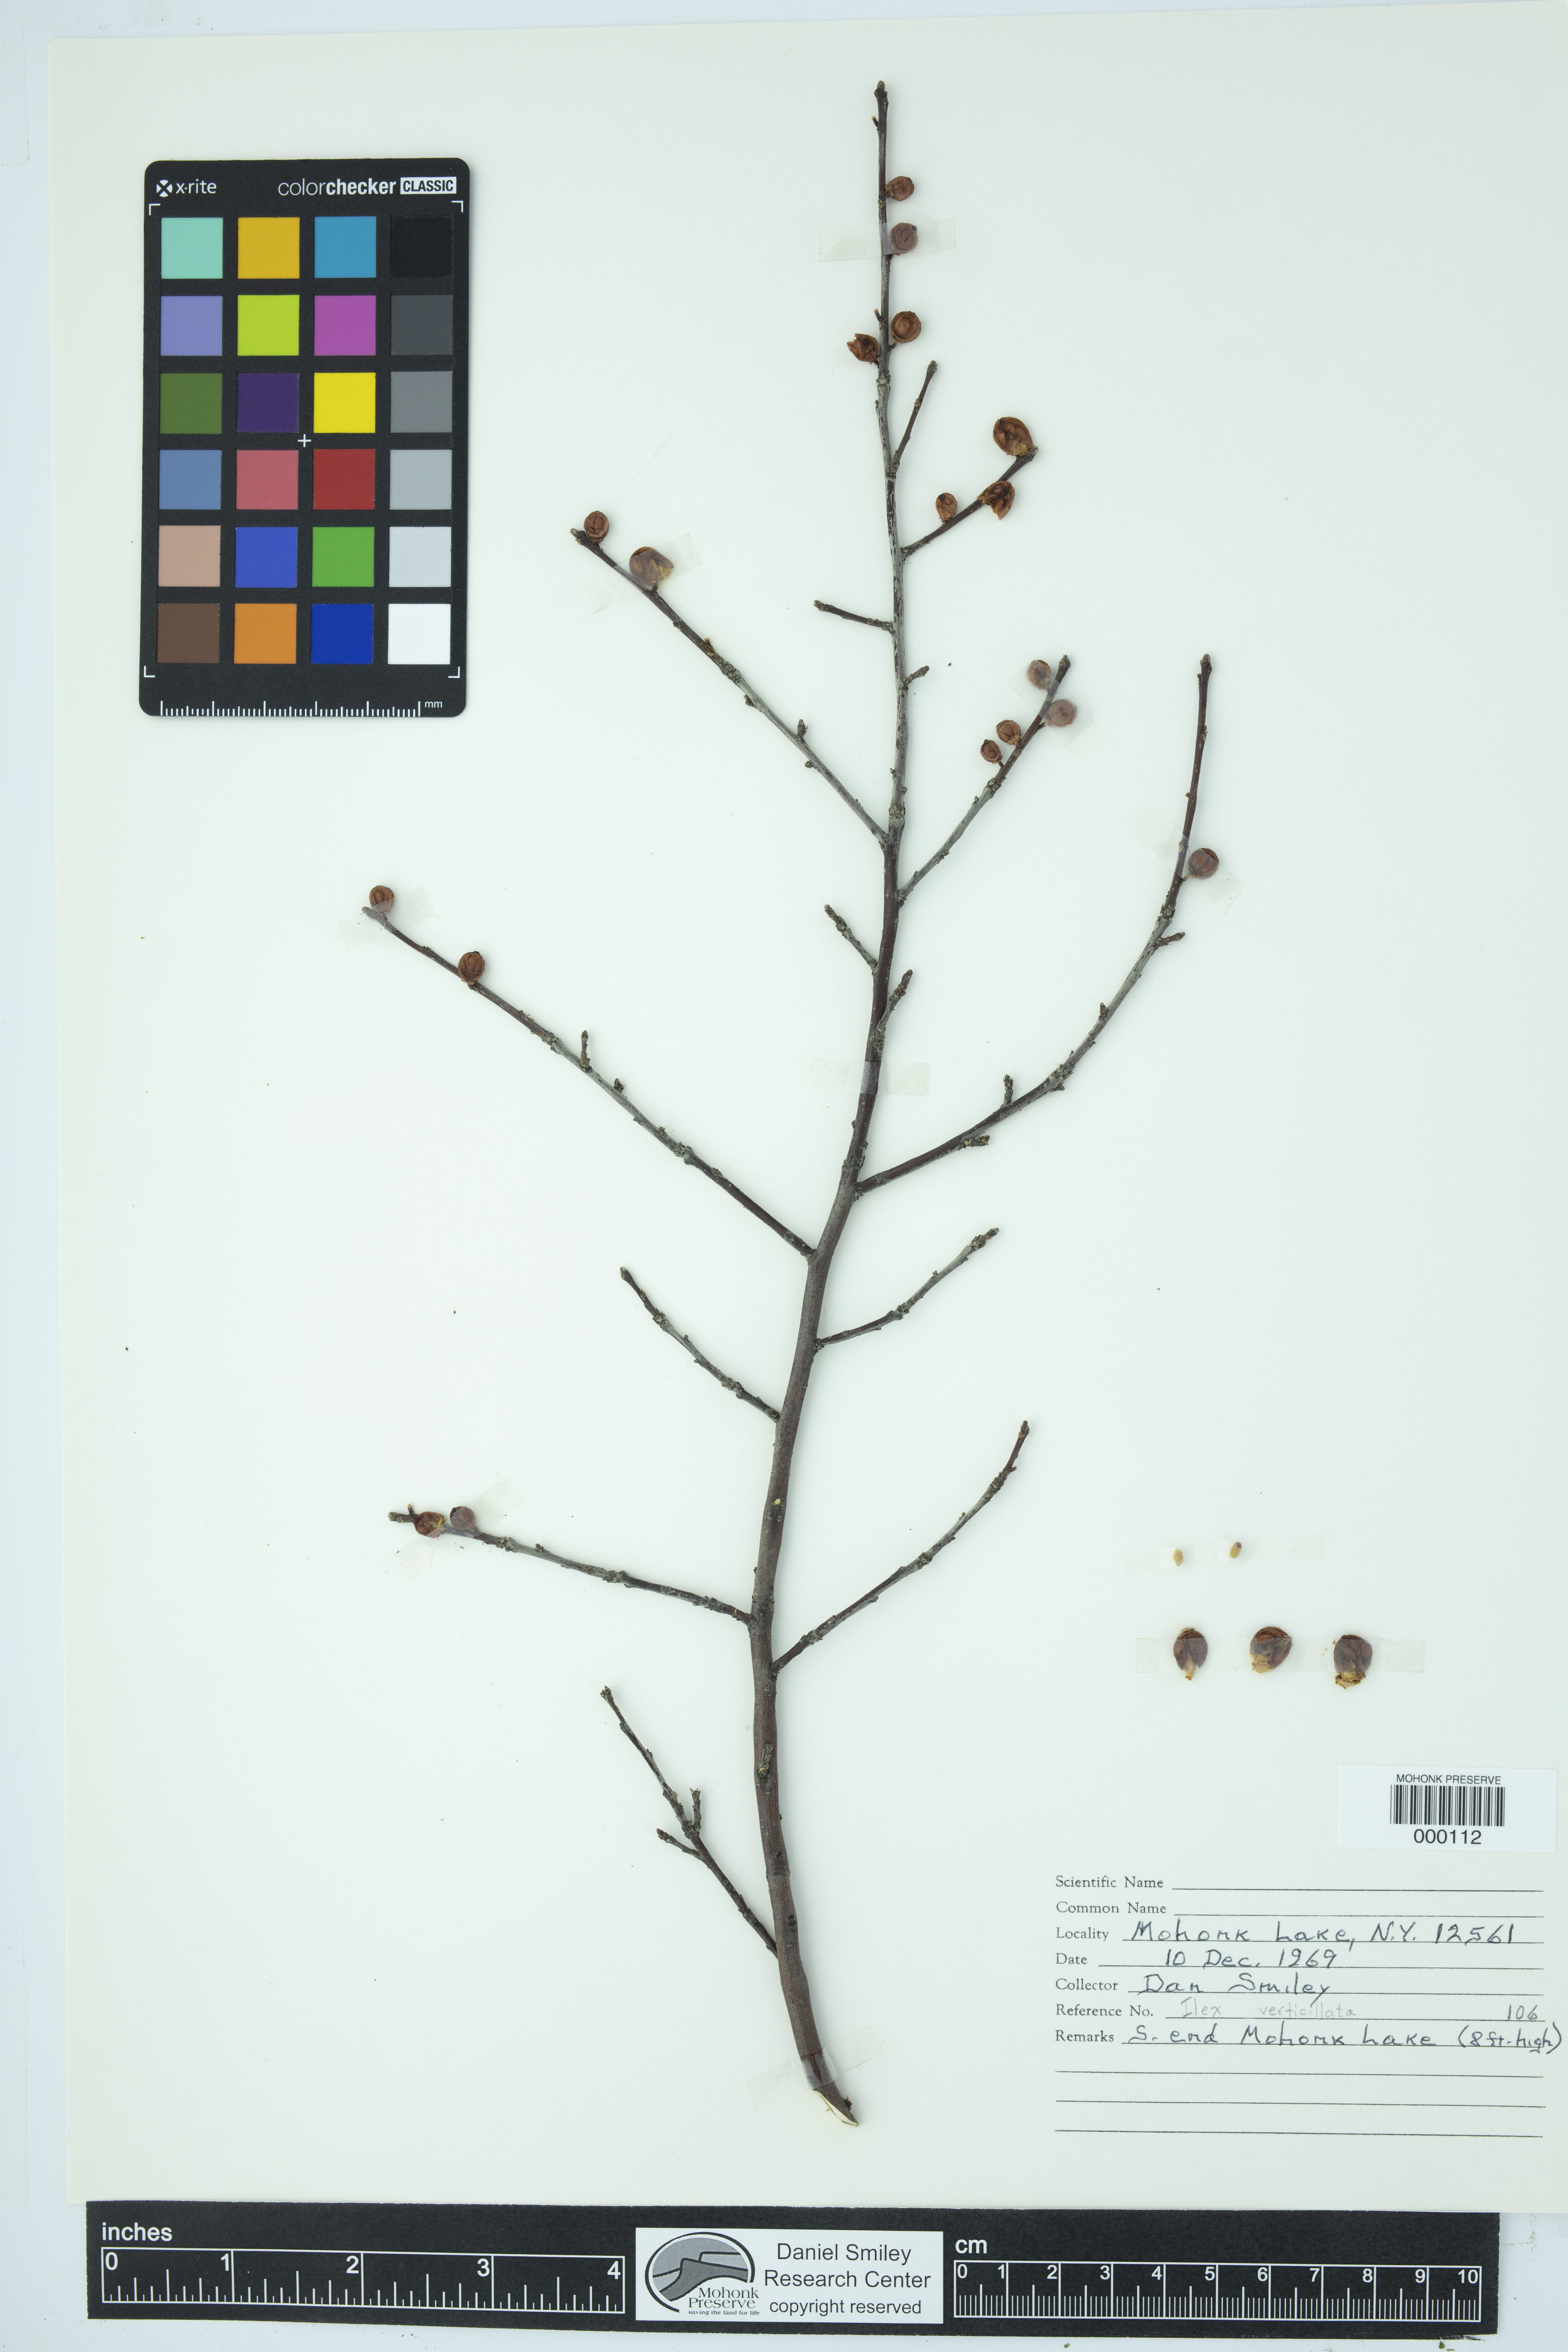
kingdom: Plantae
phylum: Tracheophyta
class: Magnoliopsida
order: Aquifoliales
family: Aquifoliaceae
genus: Ilex
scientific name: Ilex verticillata
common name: Virginia winterberry
